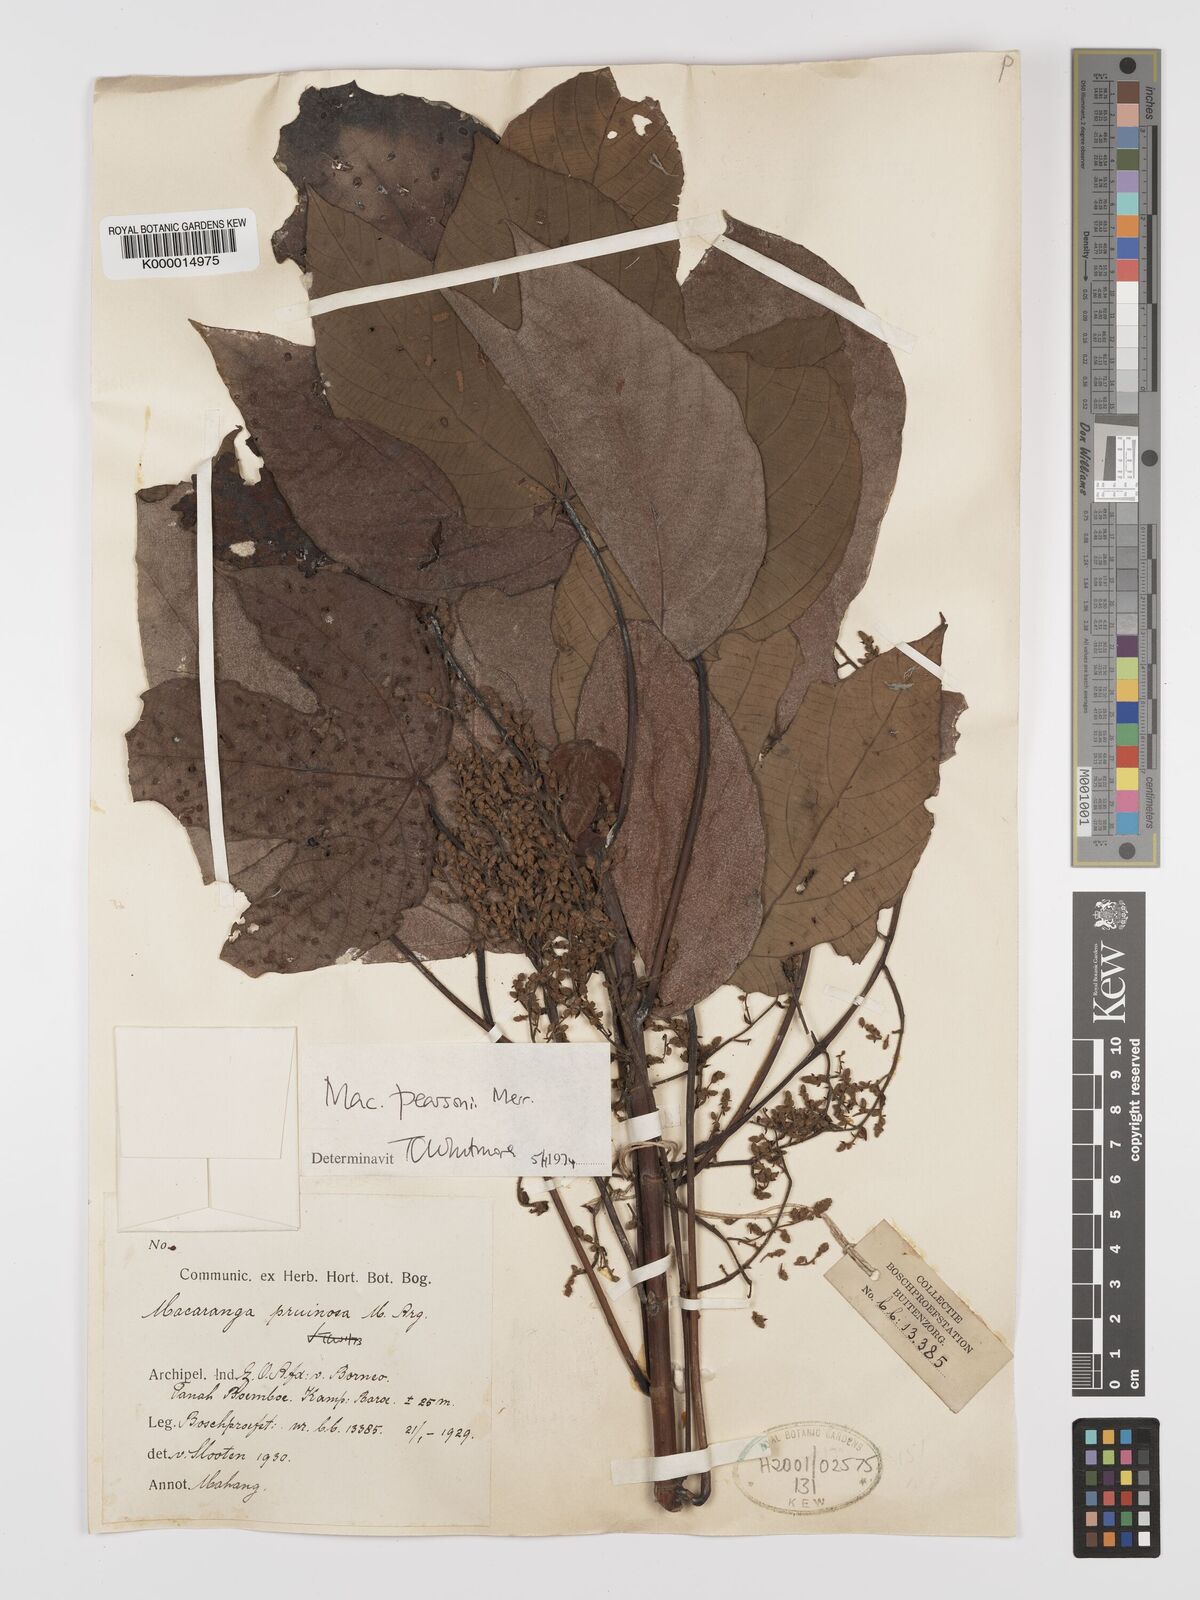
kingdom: Plantae
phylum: Tracheophyta
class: Magnoliopsida
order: Malpighiales
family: Euphorbiaceae
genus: Macaranga
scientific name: Macaranga pearsonii
